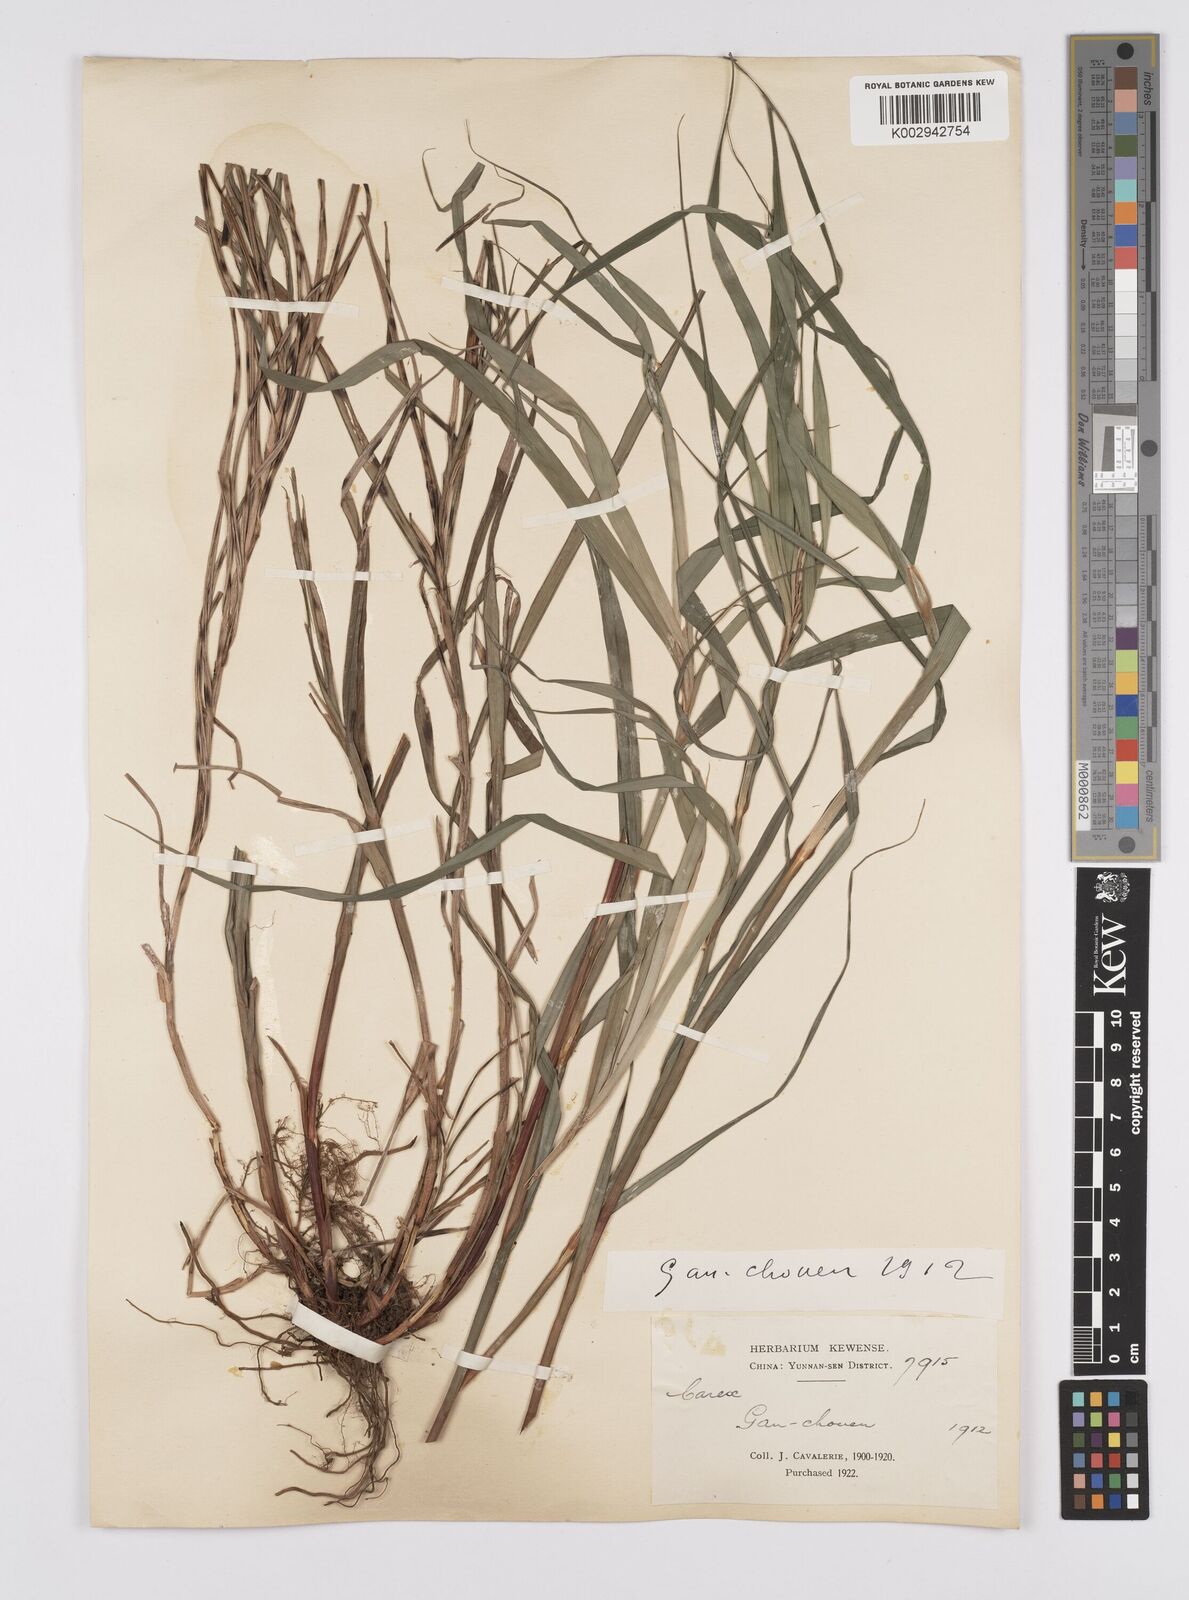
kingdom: Plantae
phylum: Tracheophyta
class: Liliopsida
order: Poales
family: Cyperaceae
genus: Carex
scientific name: Carex maubertiana
